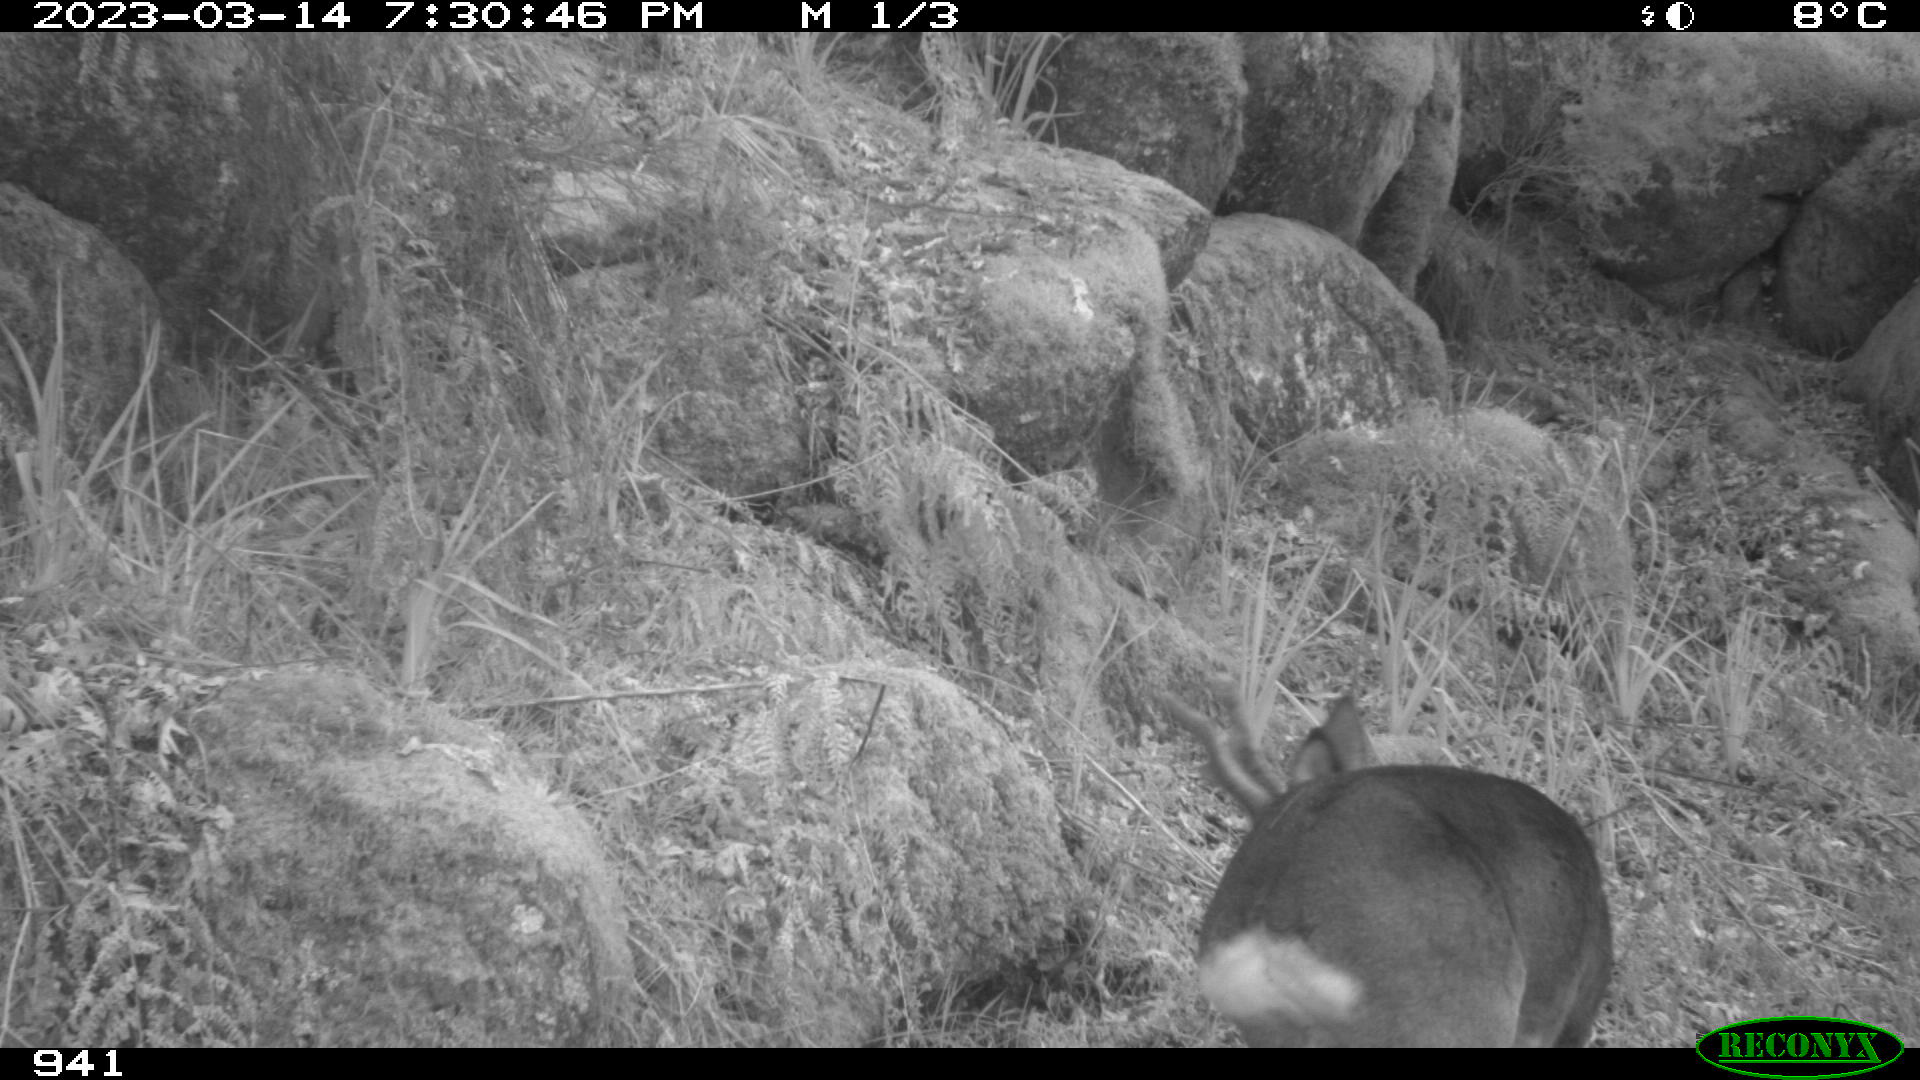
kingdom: Animalia
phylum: Chordata
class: Mammalia
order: Artiodactyla
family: Cervidae
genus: Capreolus
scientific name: Capreolus capreolus
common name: Western roe deer
